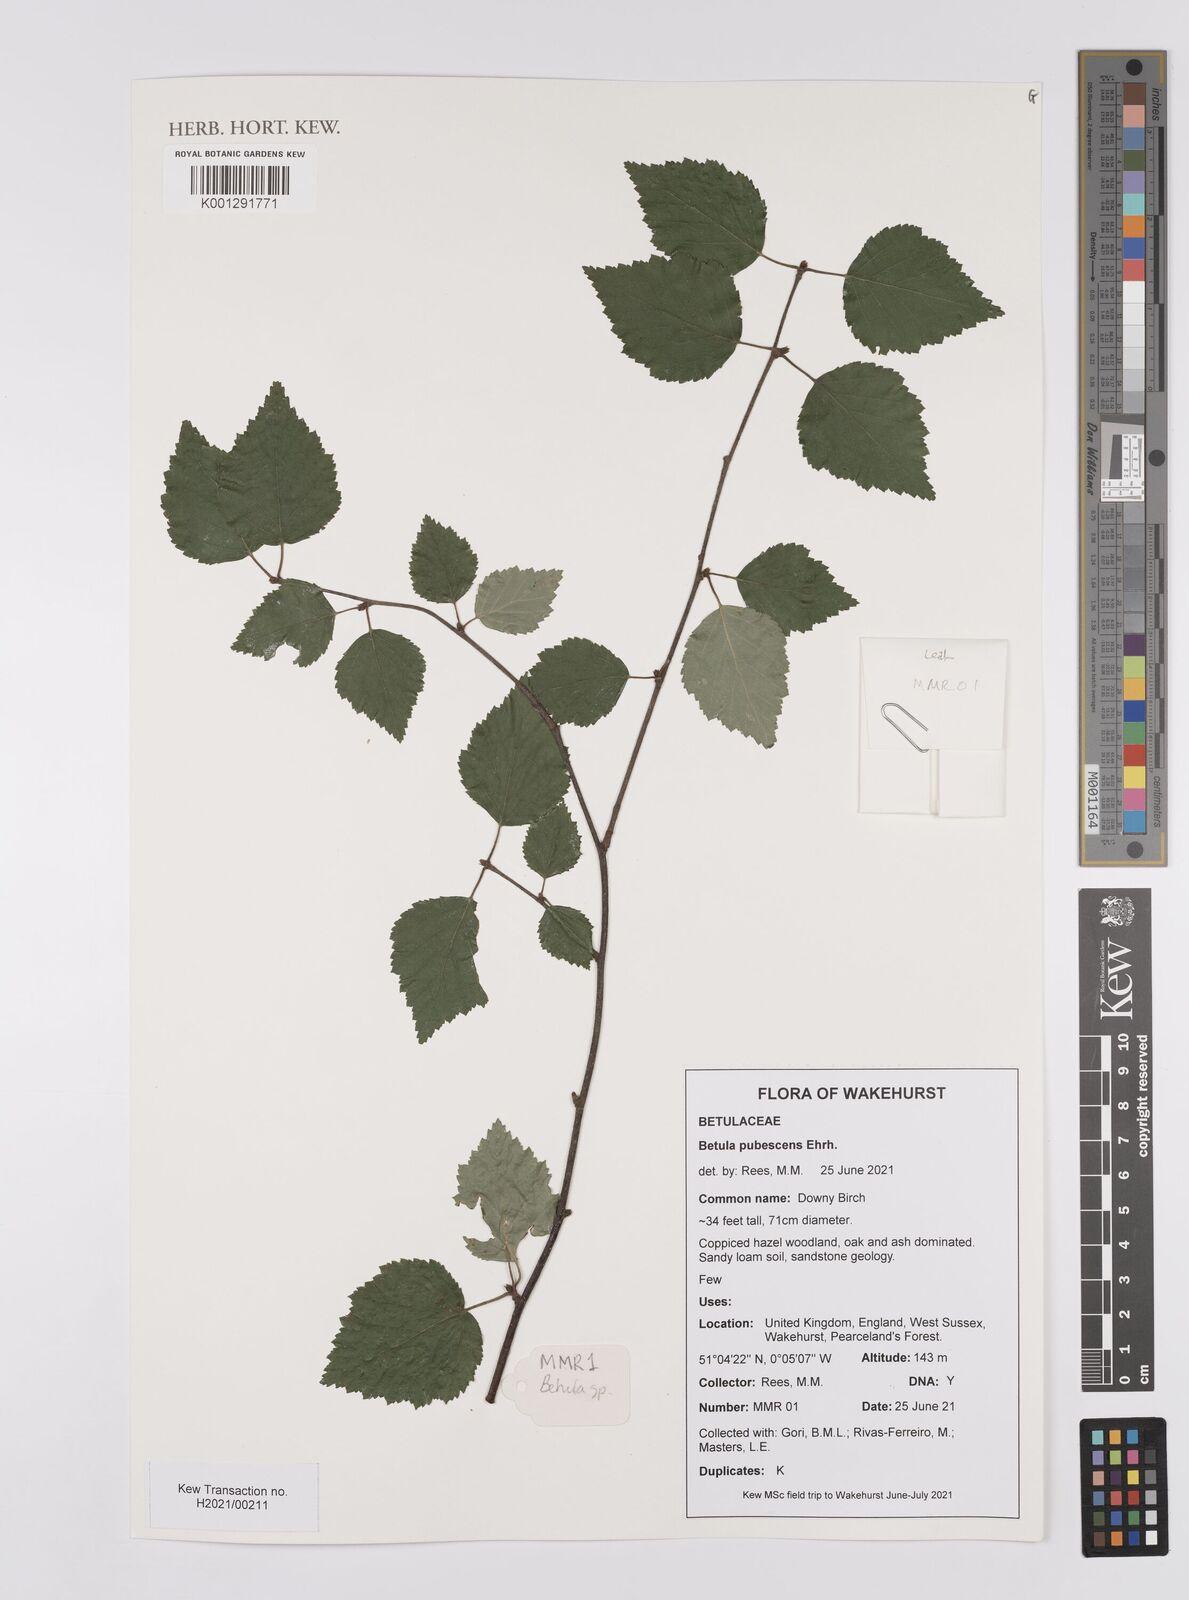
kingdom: Plantae
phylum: Tracheophyta
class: Magnoliopsida
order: Fagales
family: Betulaceae
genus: Betula
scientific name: Betula pubescens
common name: Downy birch
